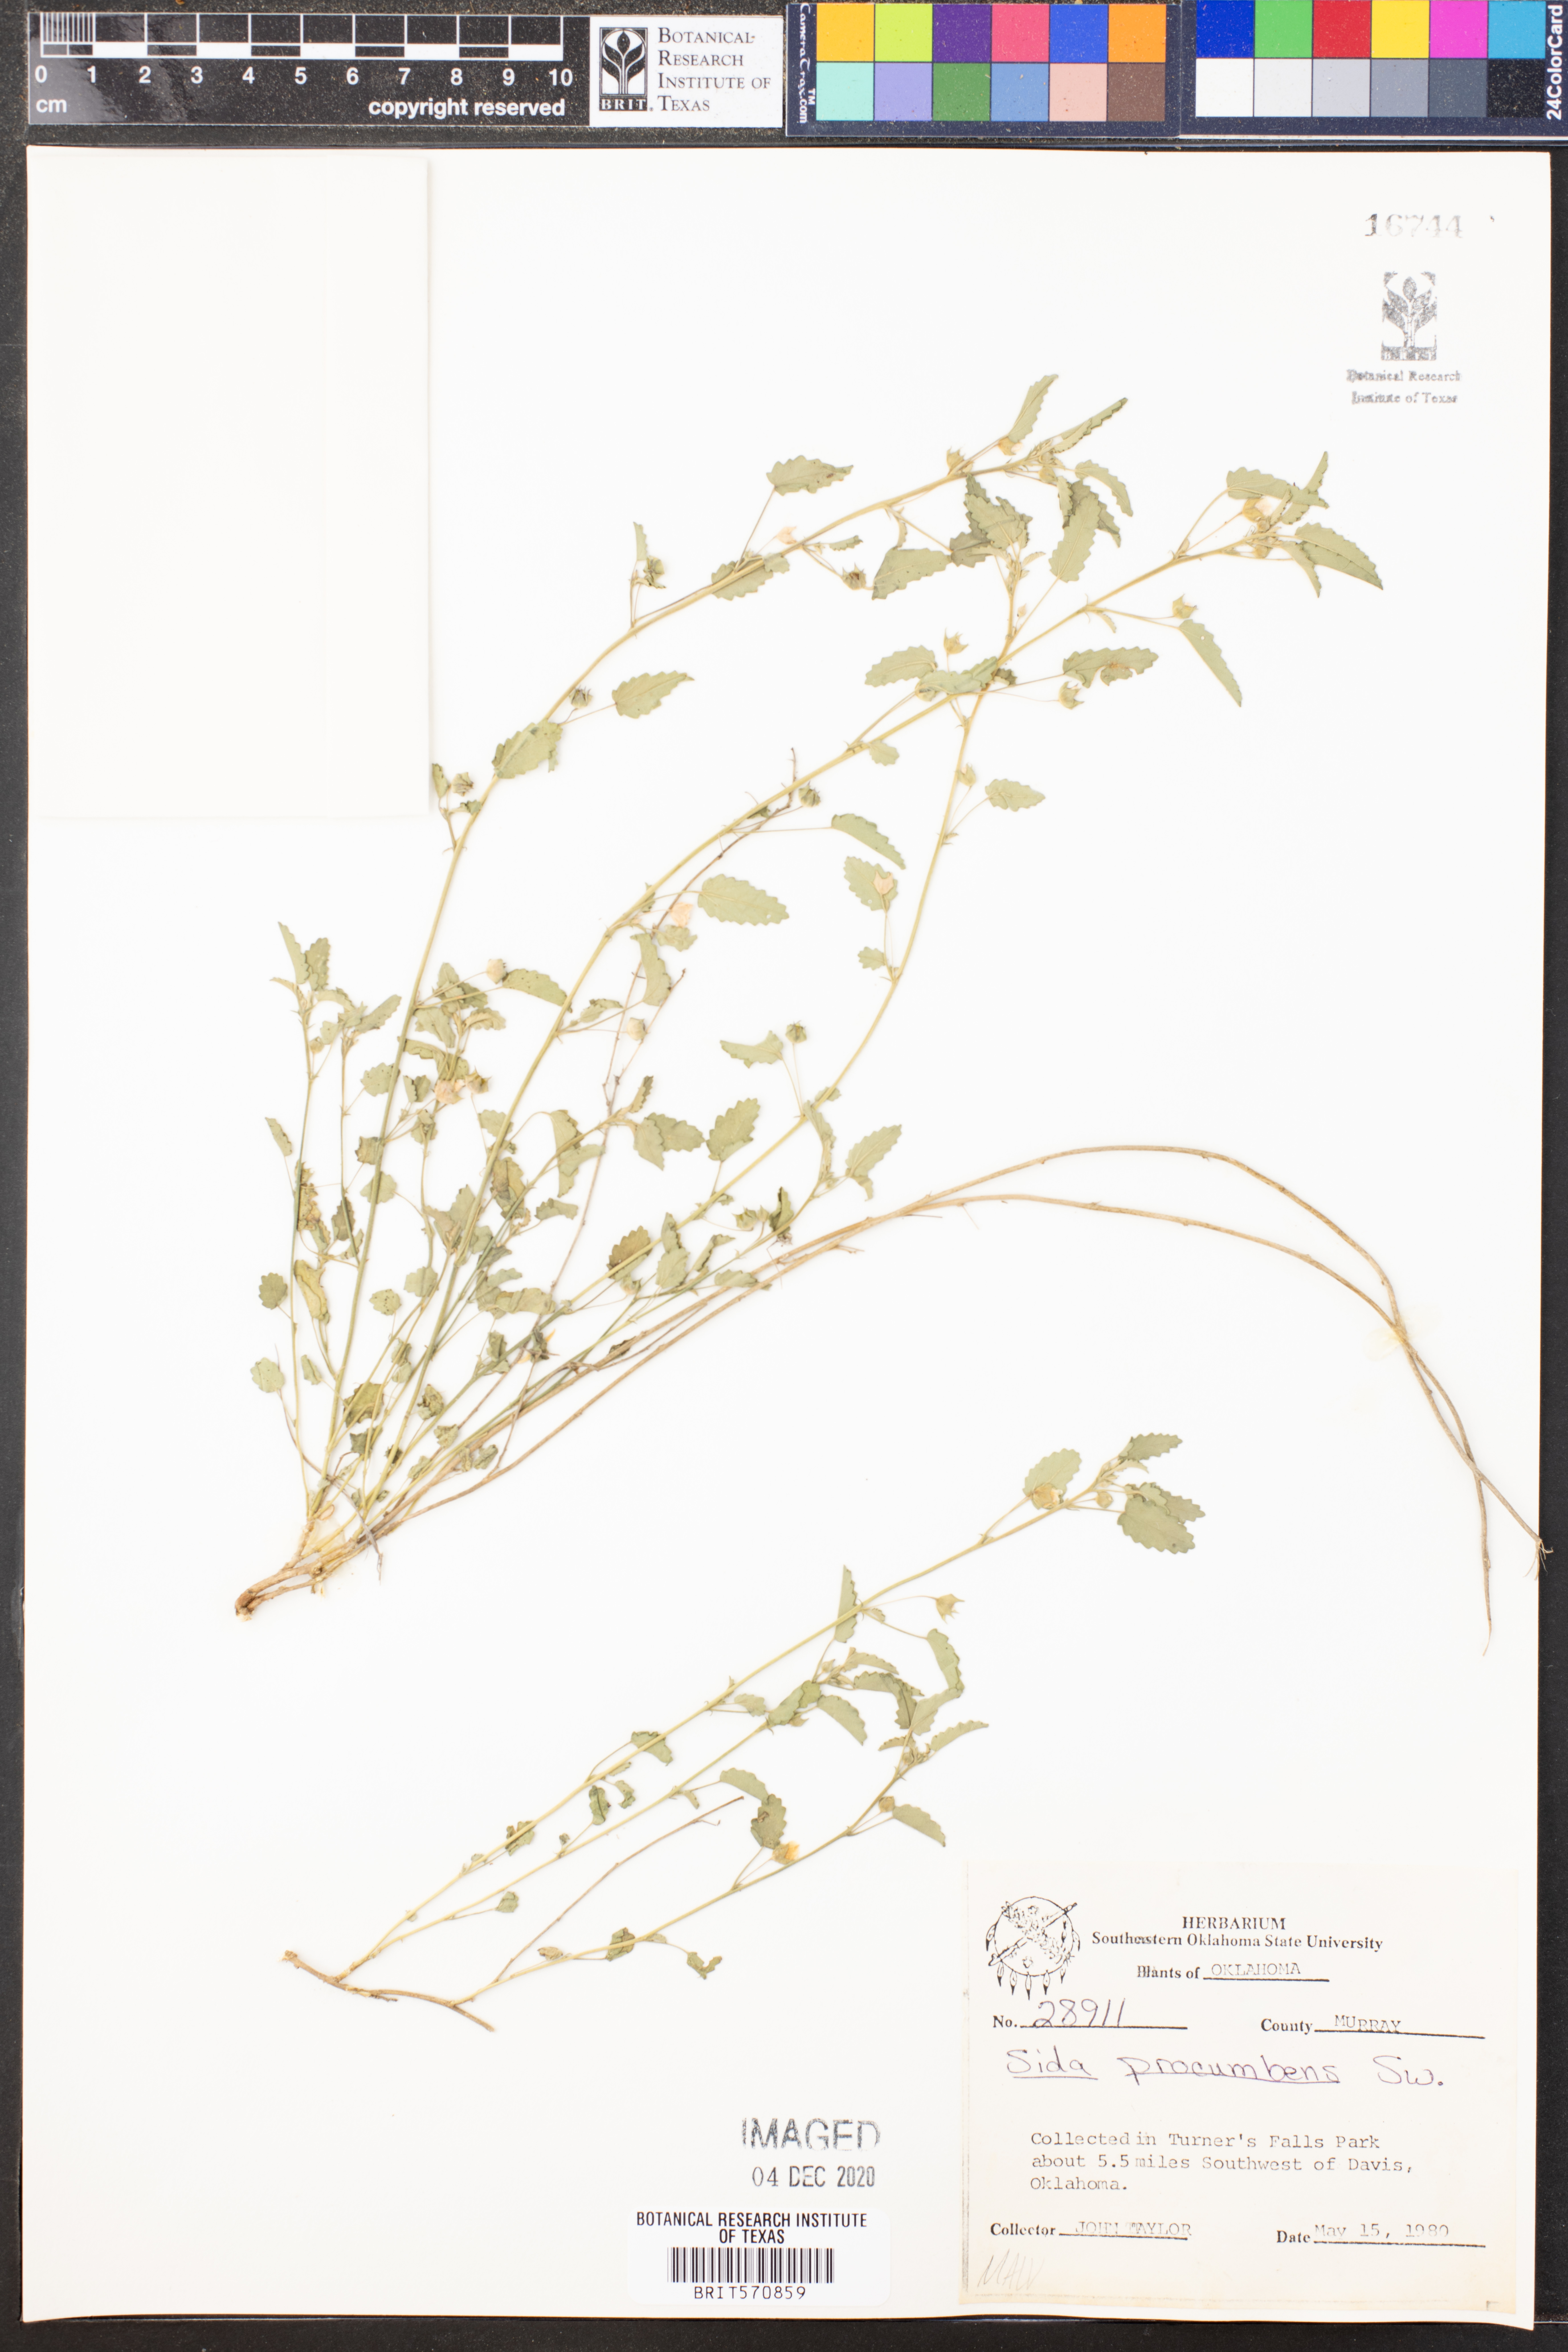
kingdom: Plantae
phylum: Tracheophyta
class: Magnoliopsida
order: Malvales
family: Malvaceae
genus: Sida
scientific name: Sida abutilifolia
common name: Spreading fanpetals
